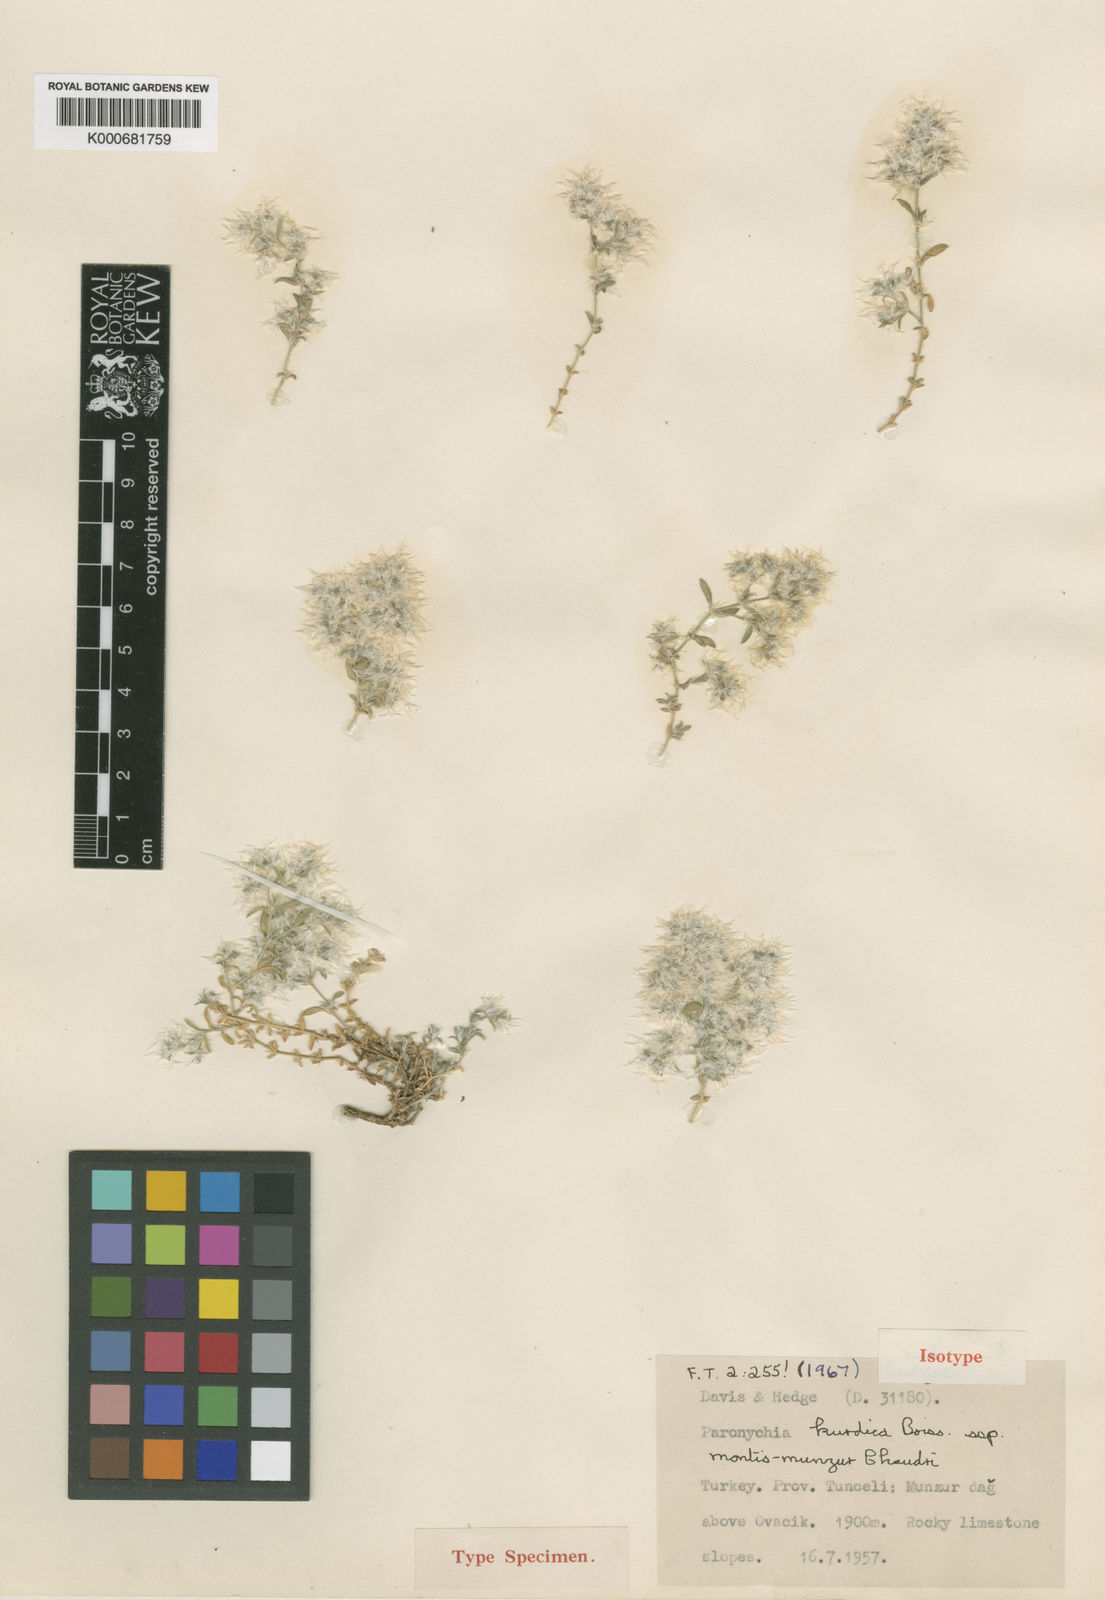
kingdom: Plantae
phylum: Tracheophyta
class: Magnoliopsida
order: Caryophyllales
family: Caryophyllaceae
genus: Paronychia
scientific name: Paronychia kurdica
